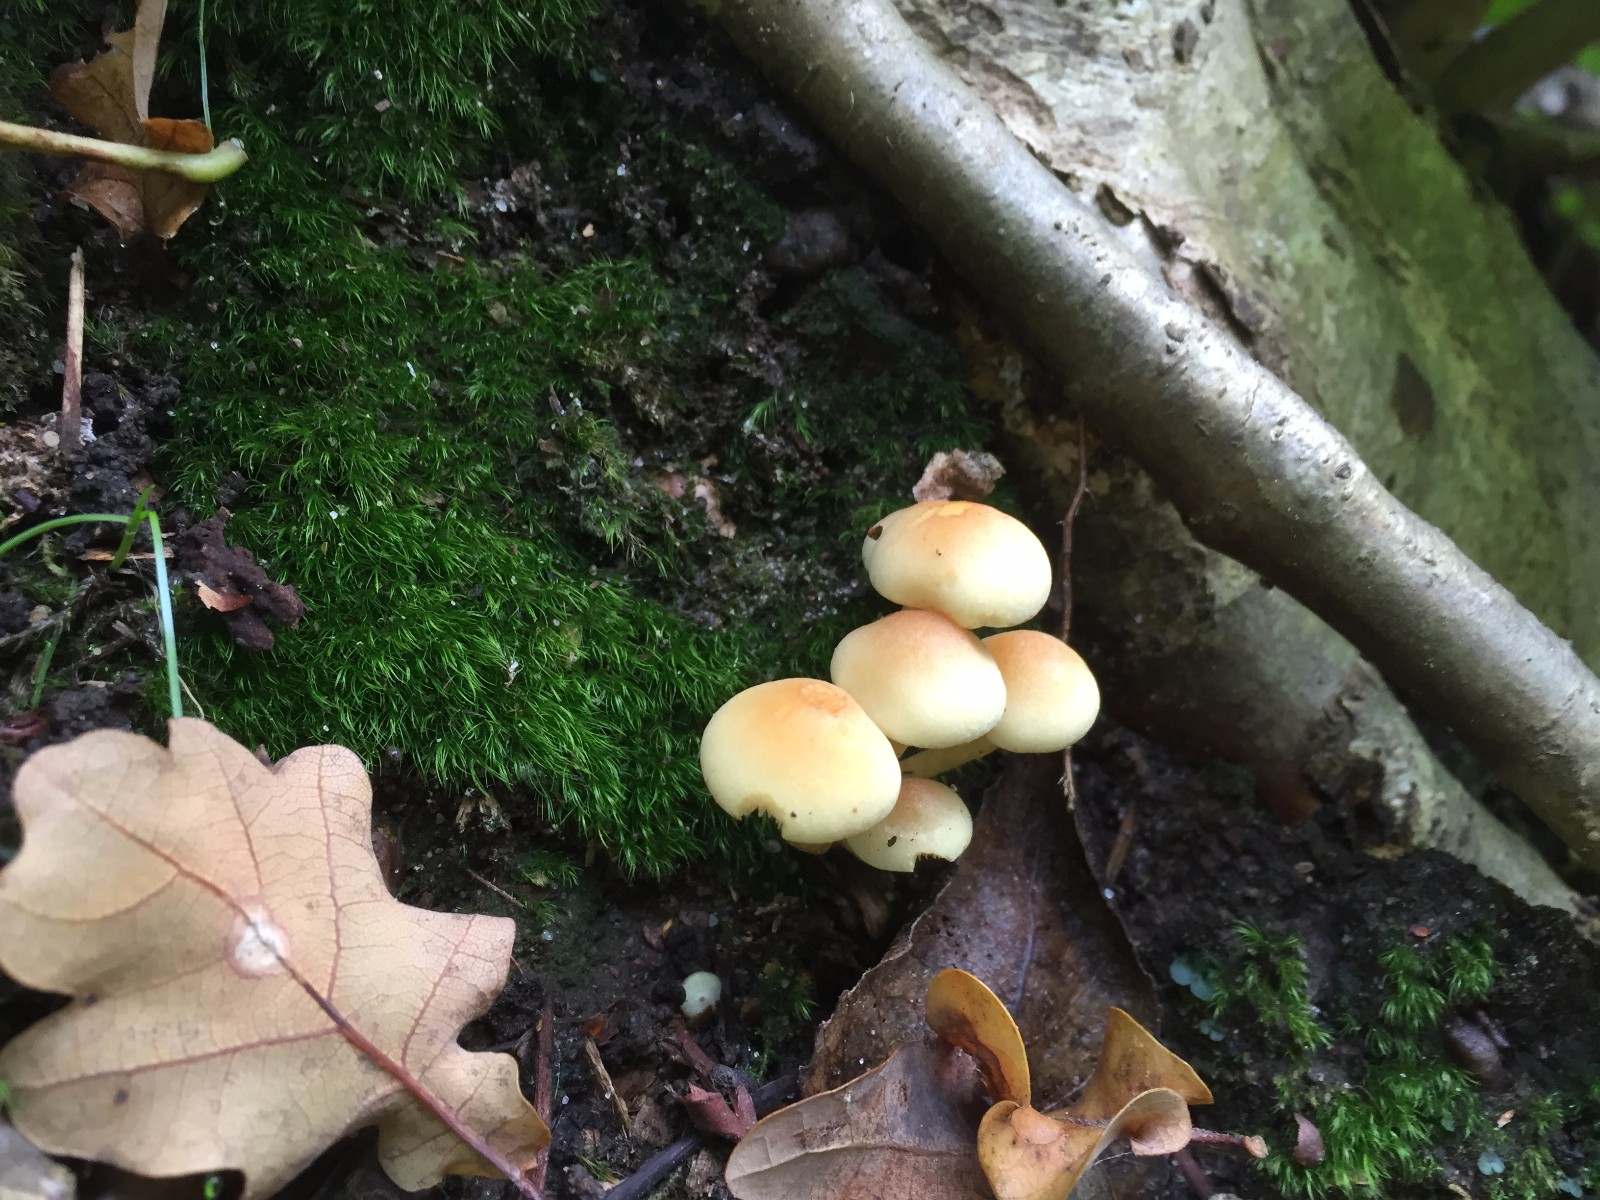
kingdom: Fungi
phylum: Basidiomycota
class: Agaricomycetes
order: Agaricales
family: Strophariaceae
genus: Hypholoma
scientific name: Hypholoma fasciculare
